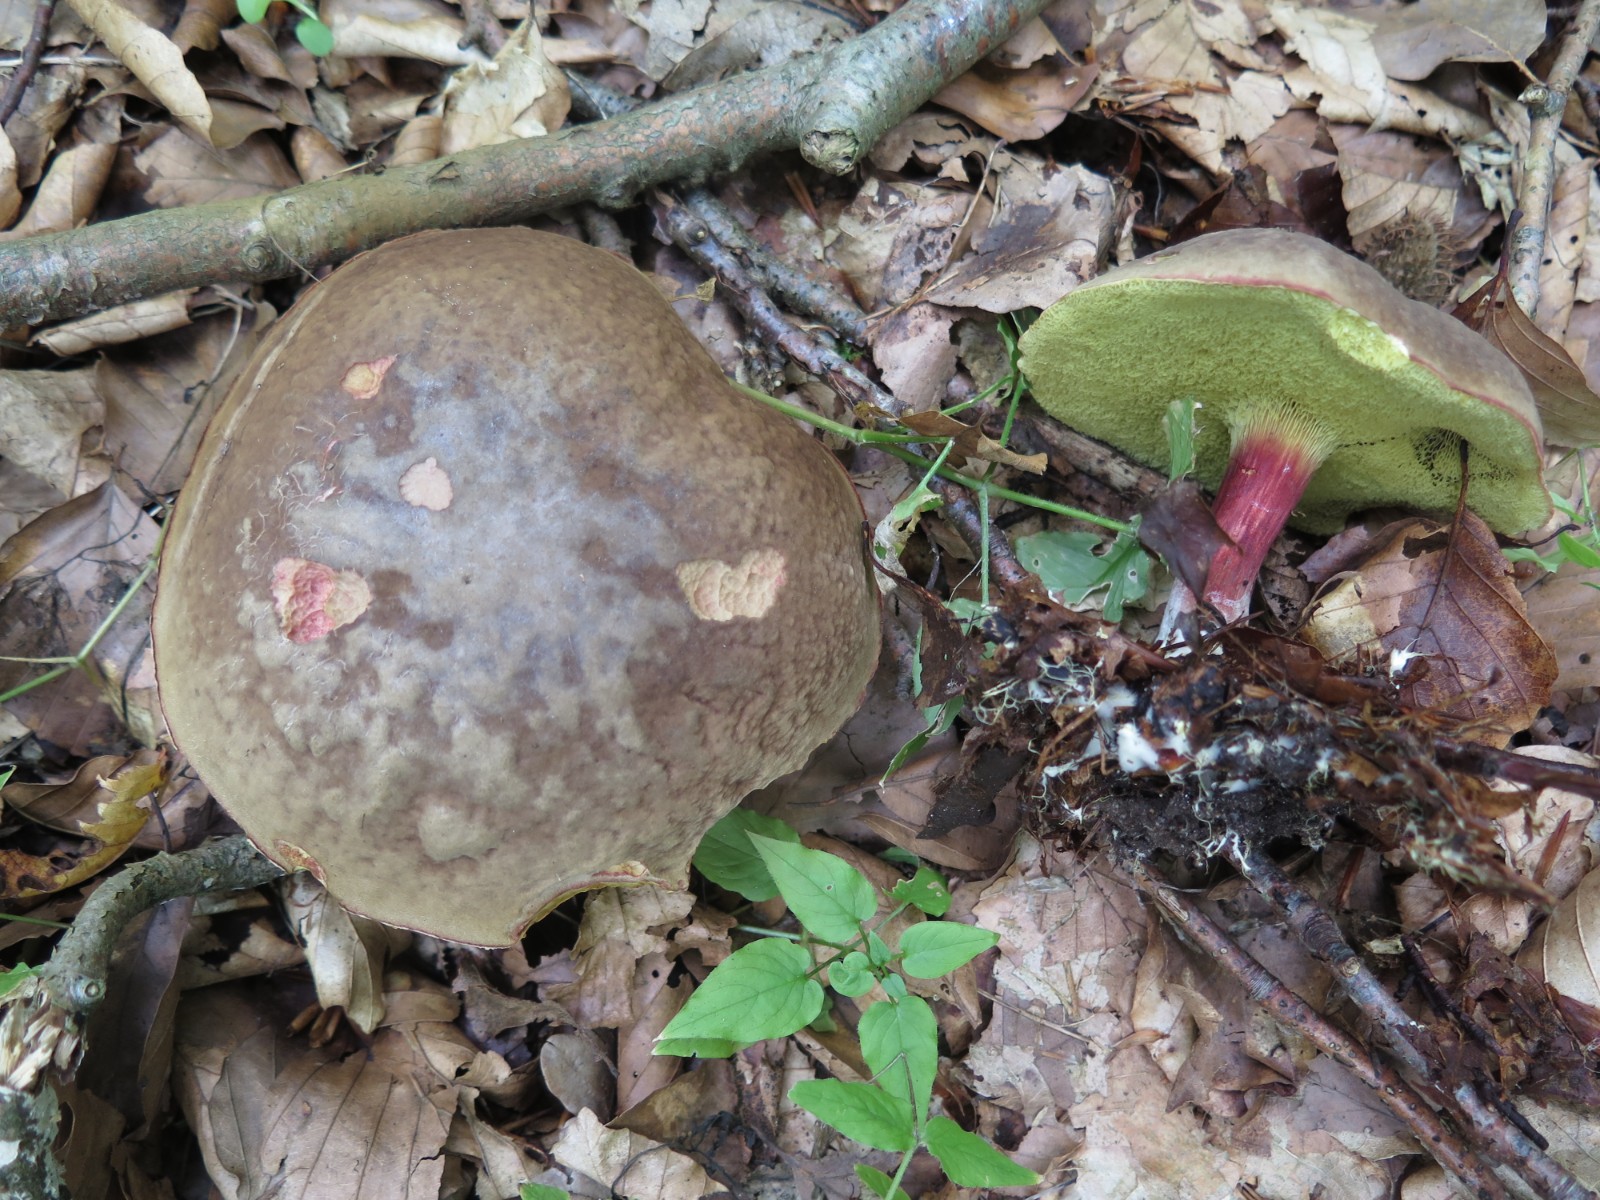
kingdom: Fungi
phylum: Basidiomycota
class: Agaricomycetes
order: Boletales
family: Boletaceae
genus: Xerocomellus
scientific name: Xerocomellus chrysenteron
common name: rødsprukken rørhat
